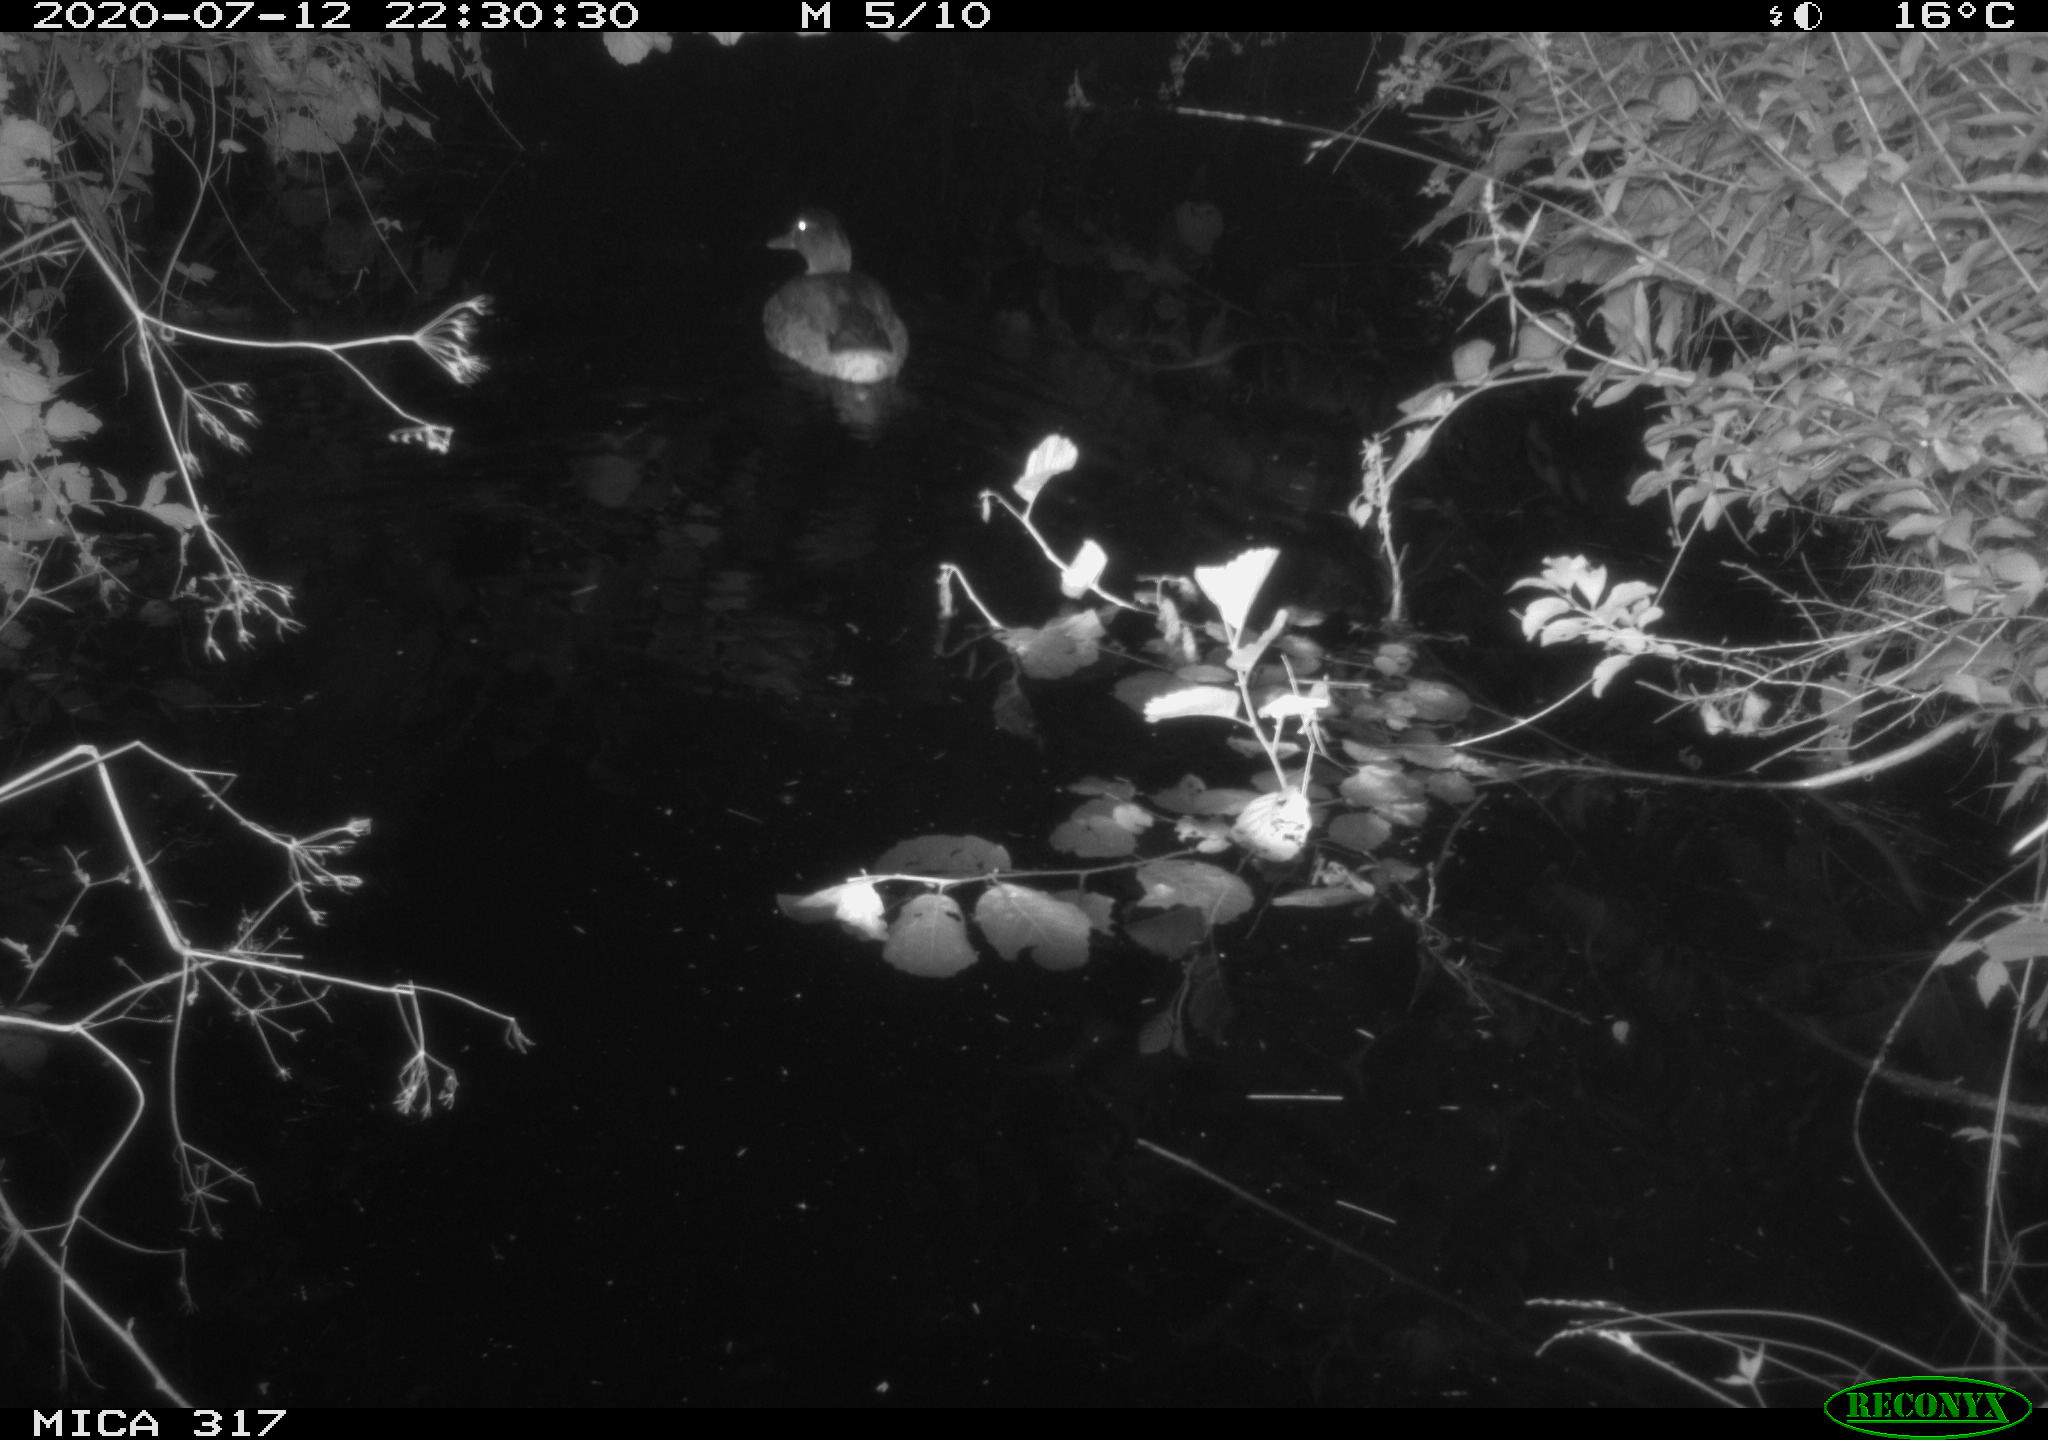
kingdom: Animalia
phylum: Chordata
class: Aves
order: Anseriformes
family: Anatidae
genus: Anas
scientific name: Anas platyrhynchos
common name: Mallard
